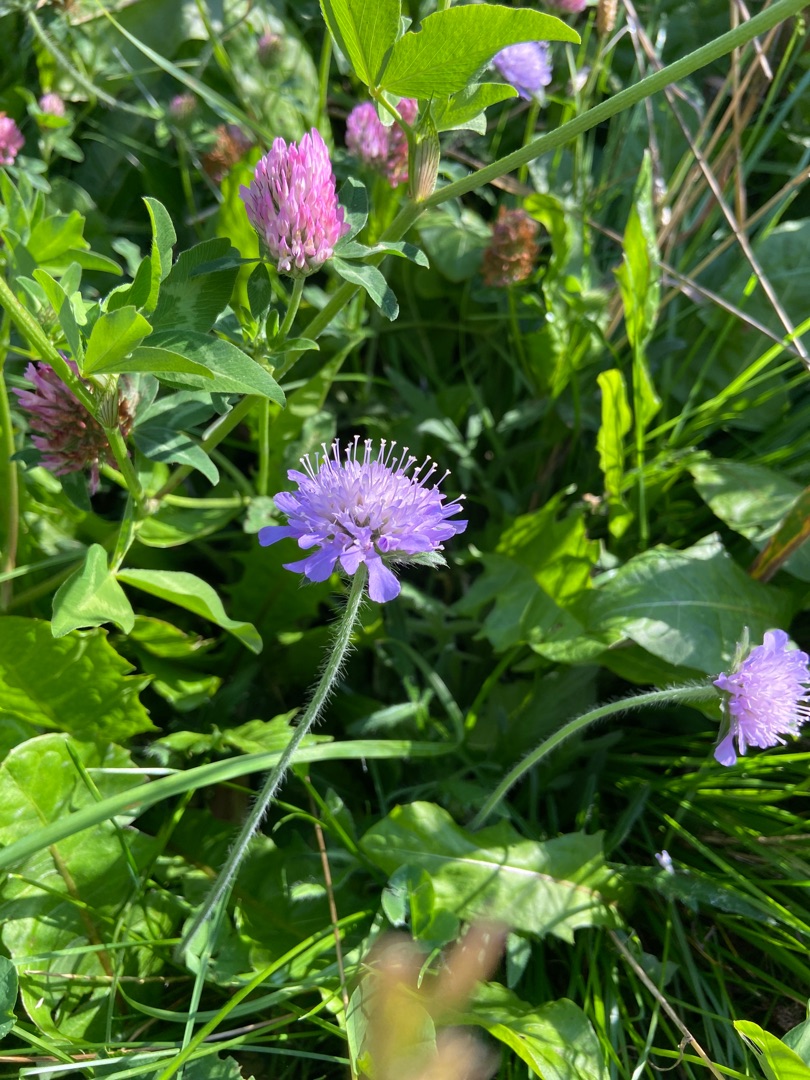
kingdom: Plantae
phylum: Tracheophyta
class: Magnoliopsida
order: Dipsacales
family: Caprifoliaceae
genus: Knautia
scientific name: Knautia arvensis
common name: Blåhat
